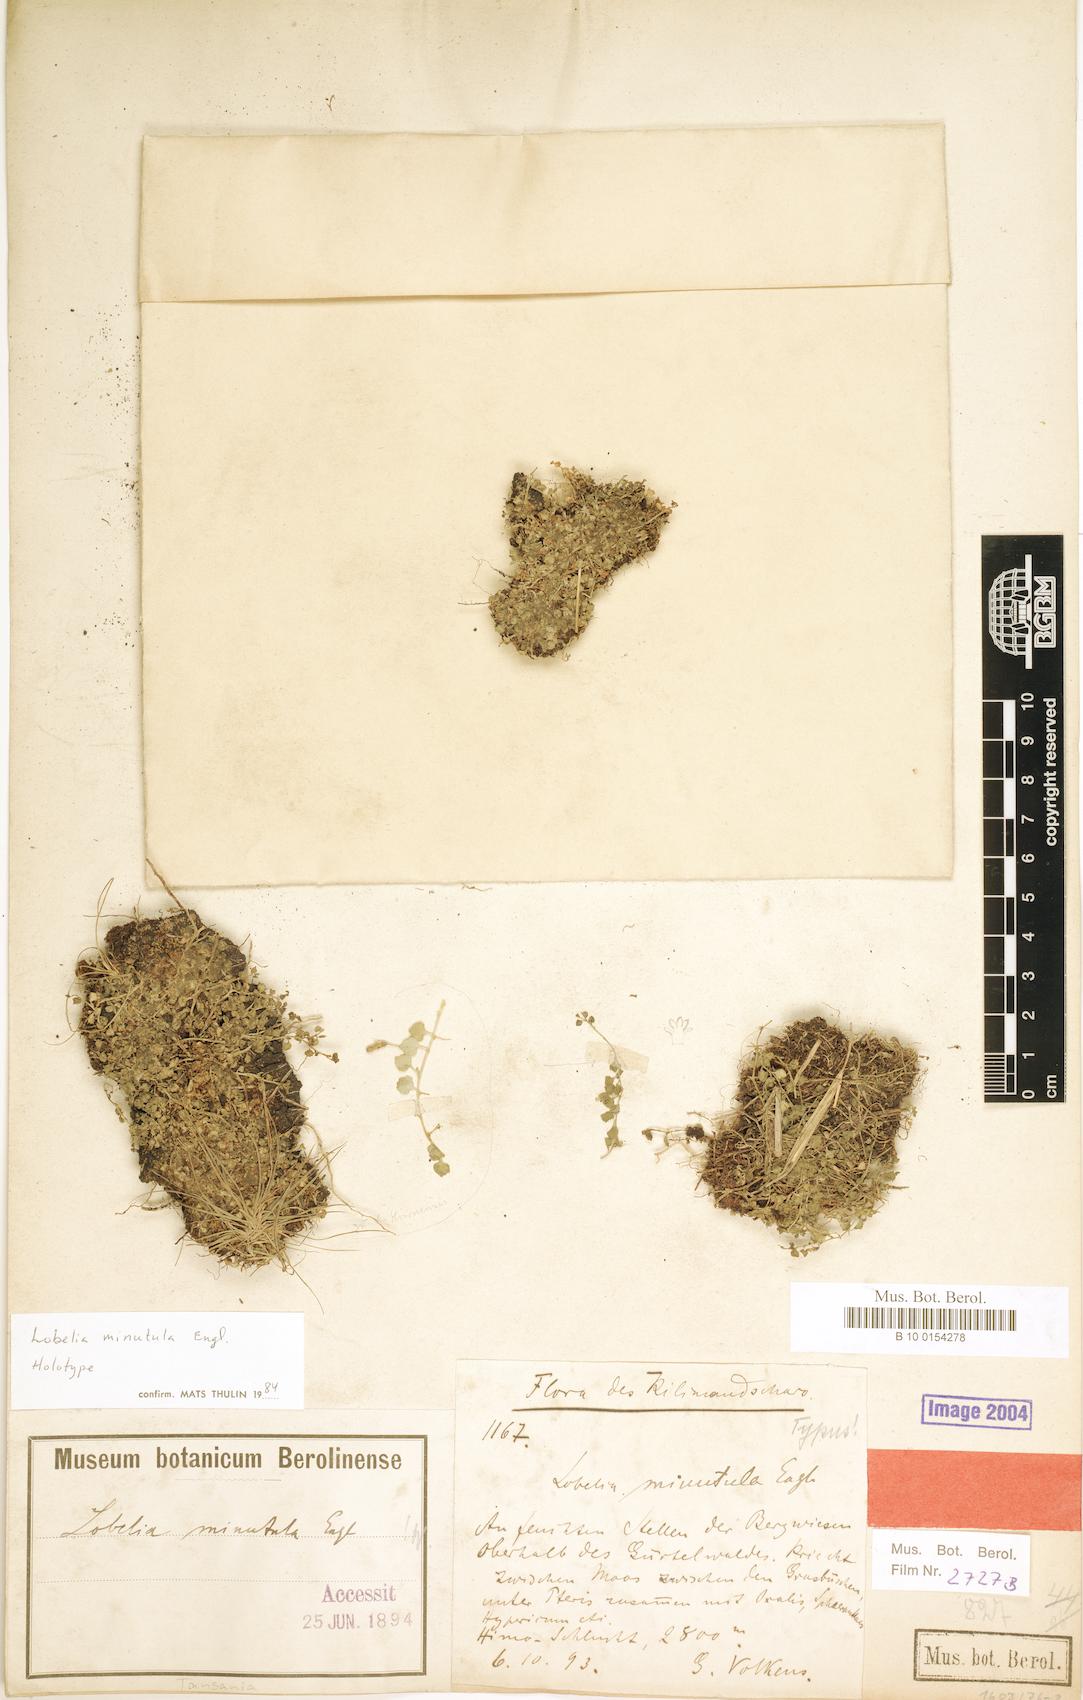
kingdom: Plantae
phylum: Tracheophyta
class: Magnoliopsida
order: Asterales
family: Campanulaceae
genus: Lobelia
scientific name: Lobelia minutula
